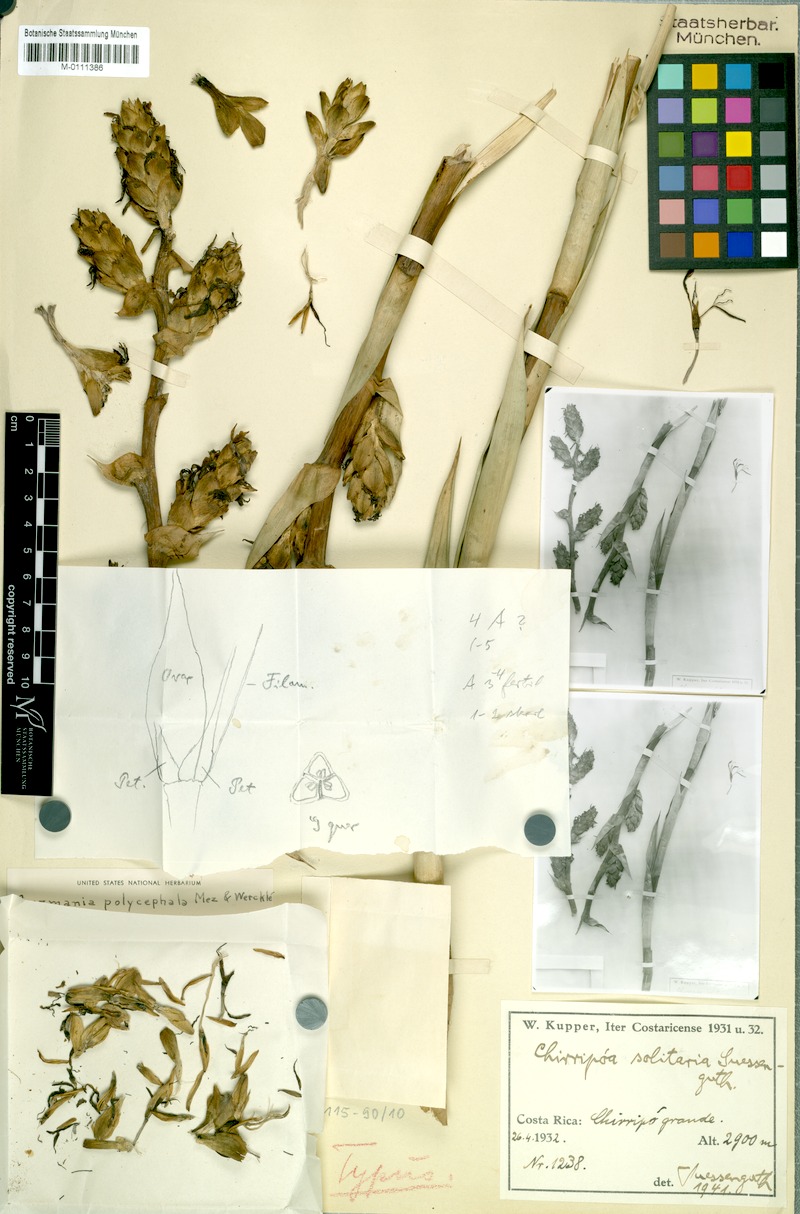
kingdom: Plantae
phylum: Tracheophyta
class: Liliopsida
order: Poales
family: Bromeliaceae
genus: Guzmania
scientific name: Guzmania polycephala
